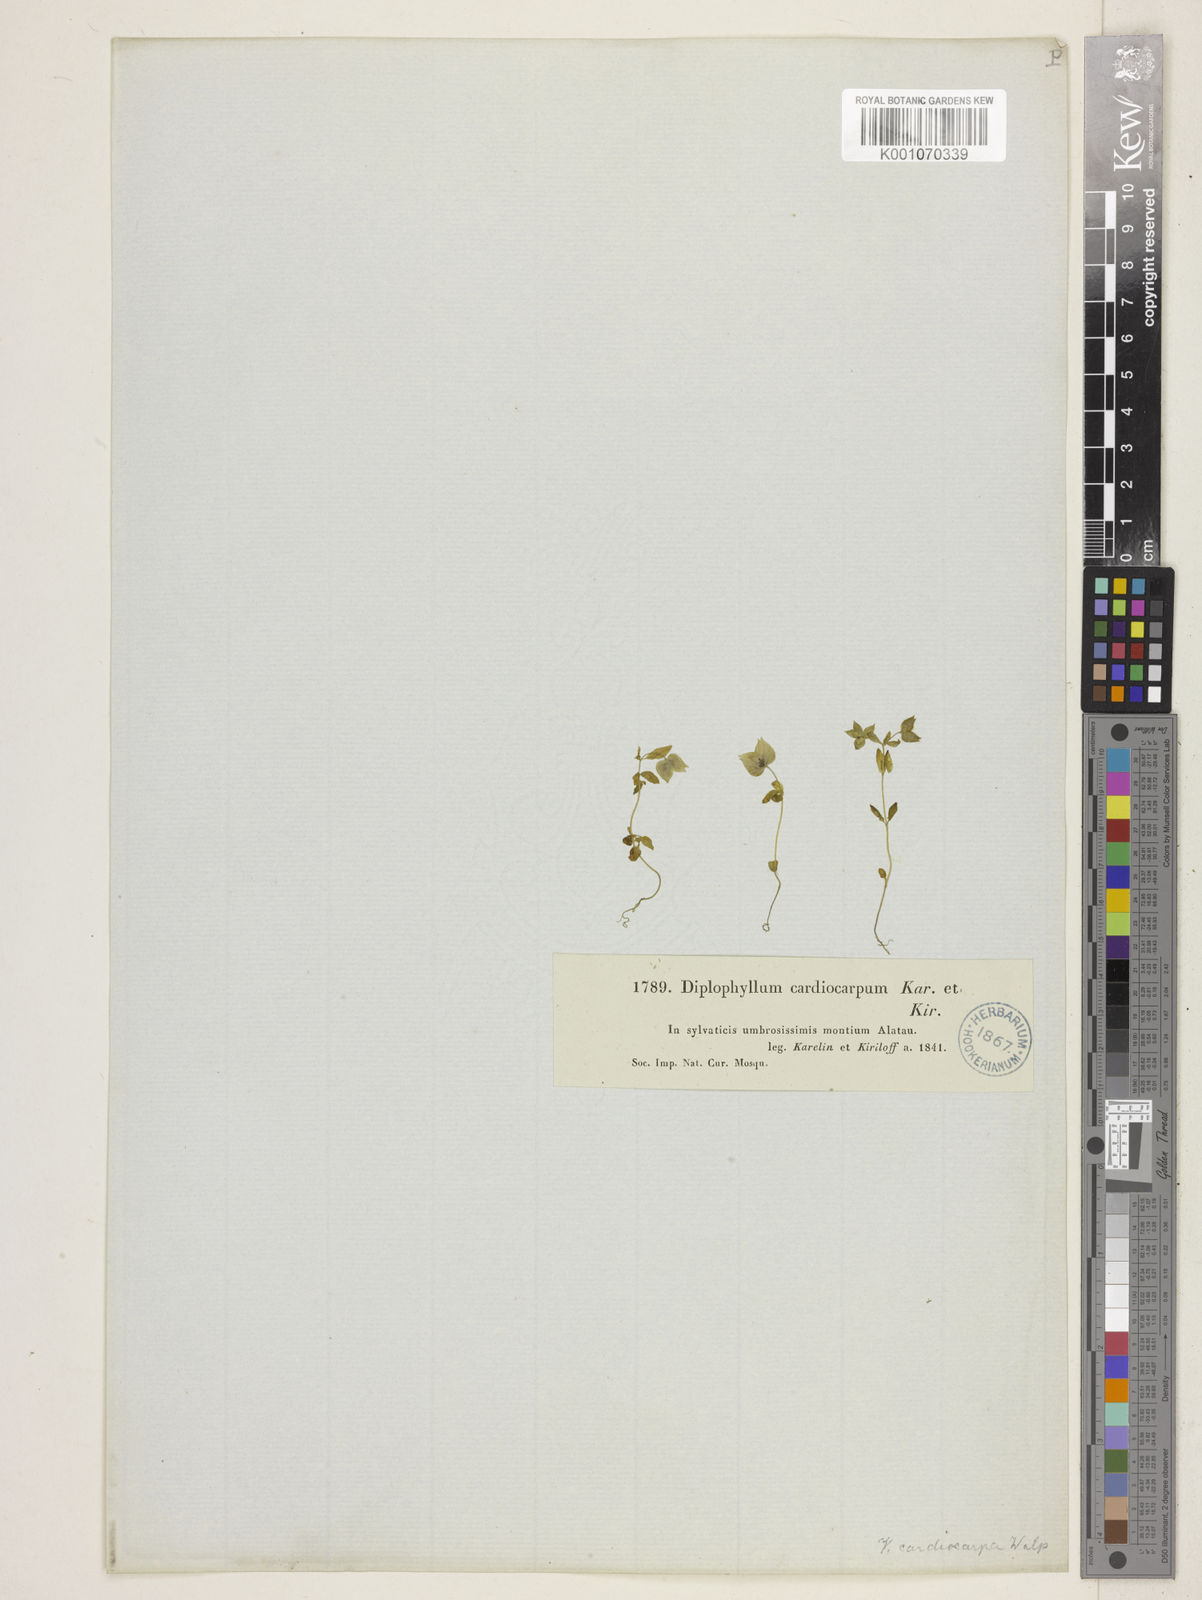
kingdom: Plantae
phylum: Tracheophyta
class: Magnoliopsida
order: Lamiales
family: Plantaginaceae
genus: Veronica
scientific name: Veronica cardiocarpa
